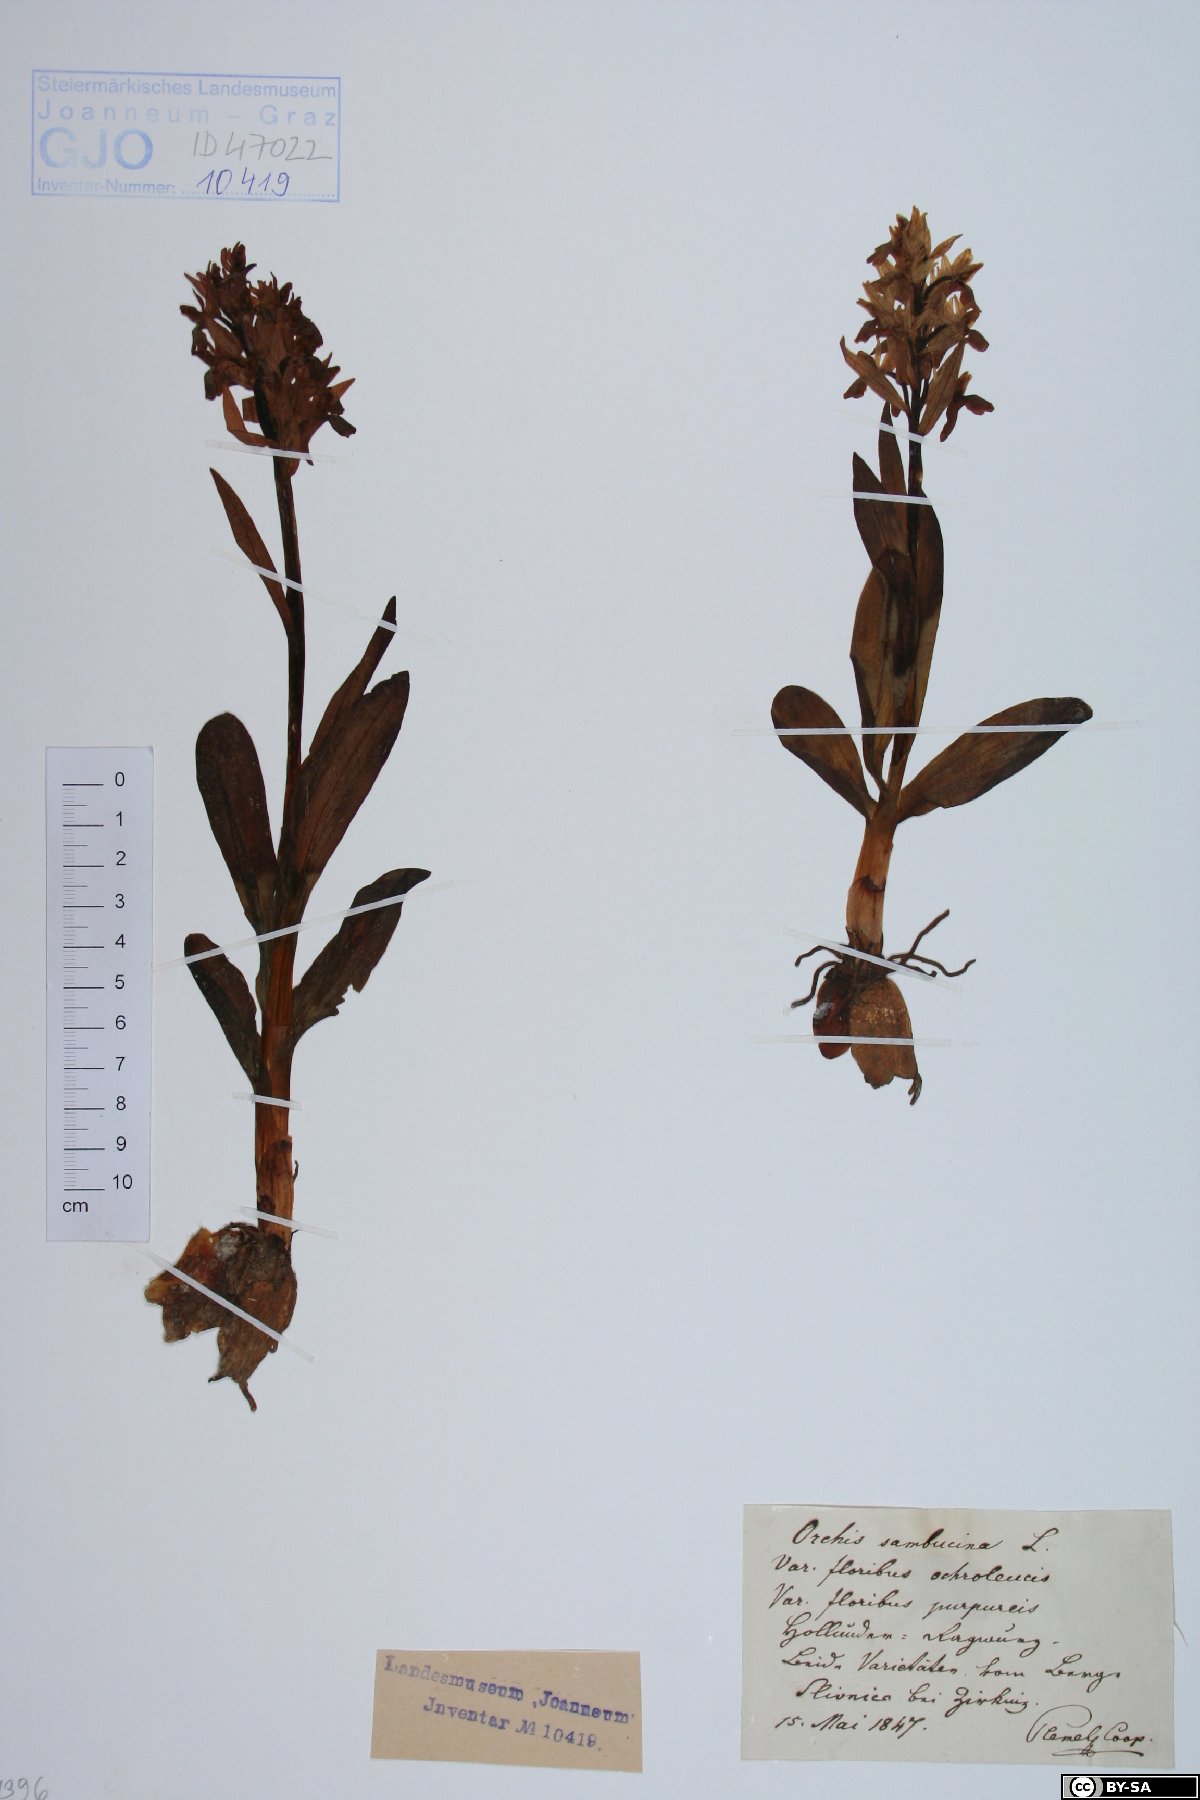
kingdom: Plantae
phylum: Tracheophyta
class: Liliopsida
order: Asparagales
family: Orchidaceae
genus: Dactylorhiza
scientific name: Dactylorhiza sambucina
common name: Elder-flowered orchid
